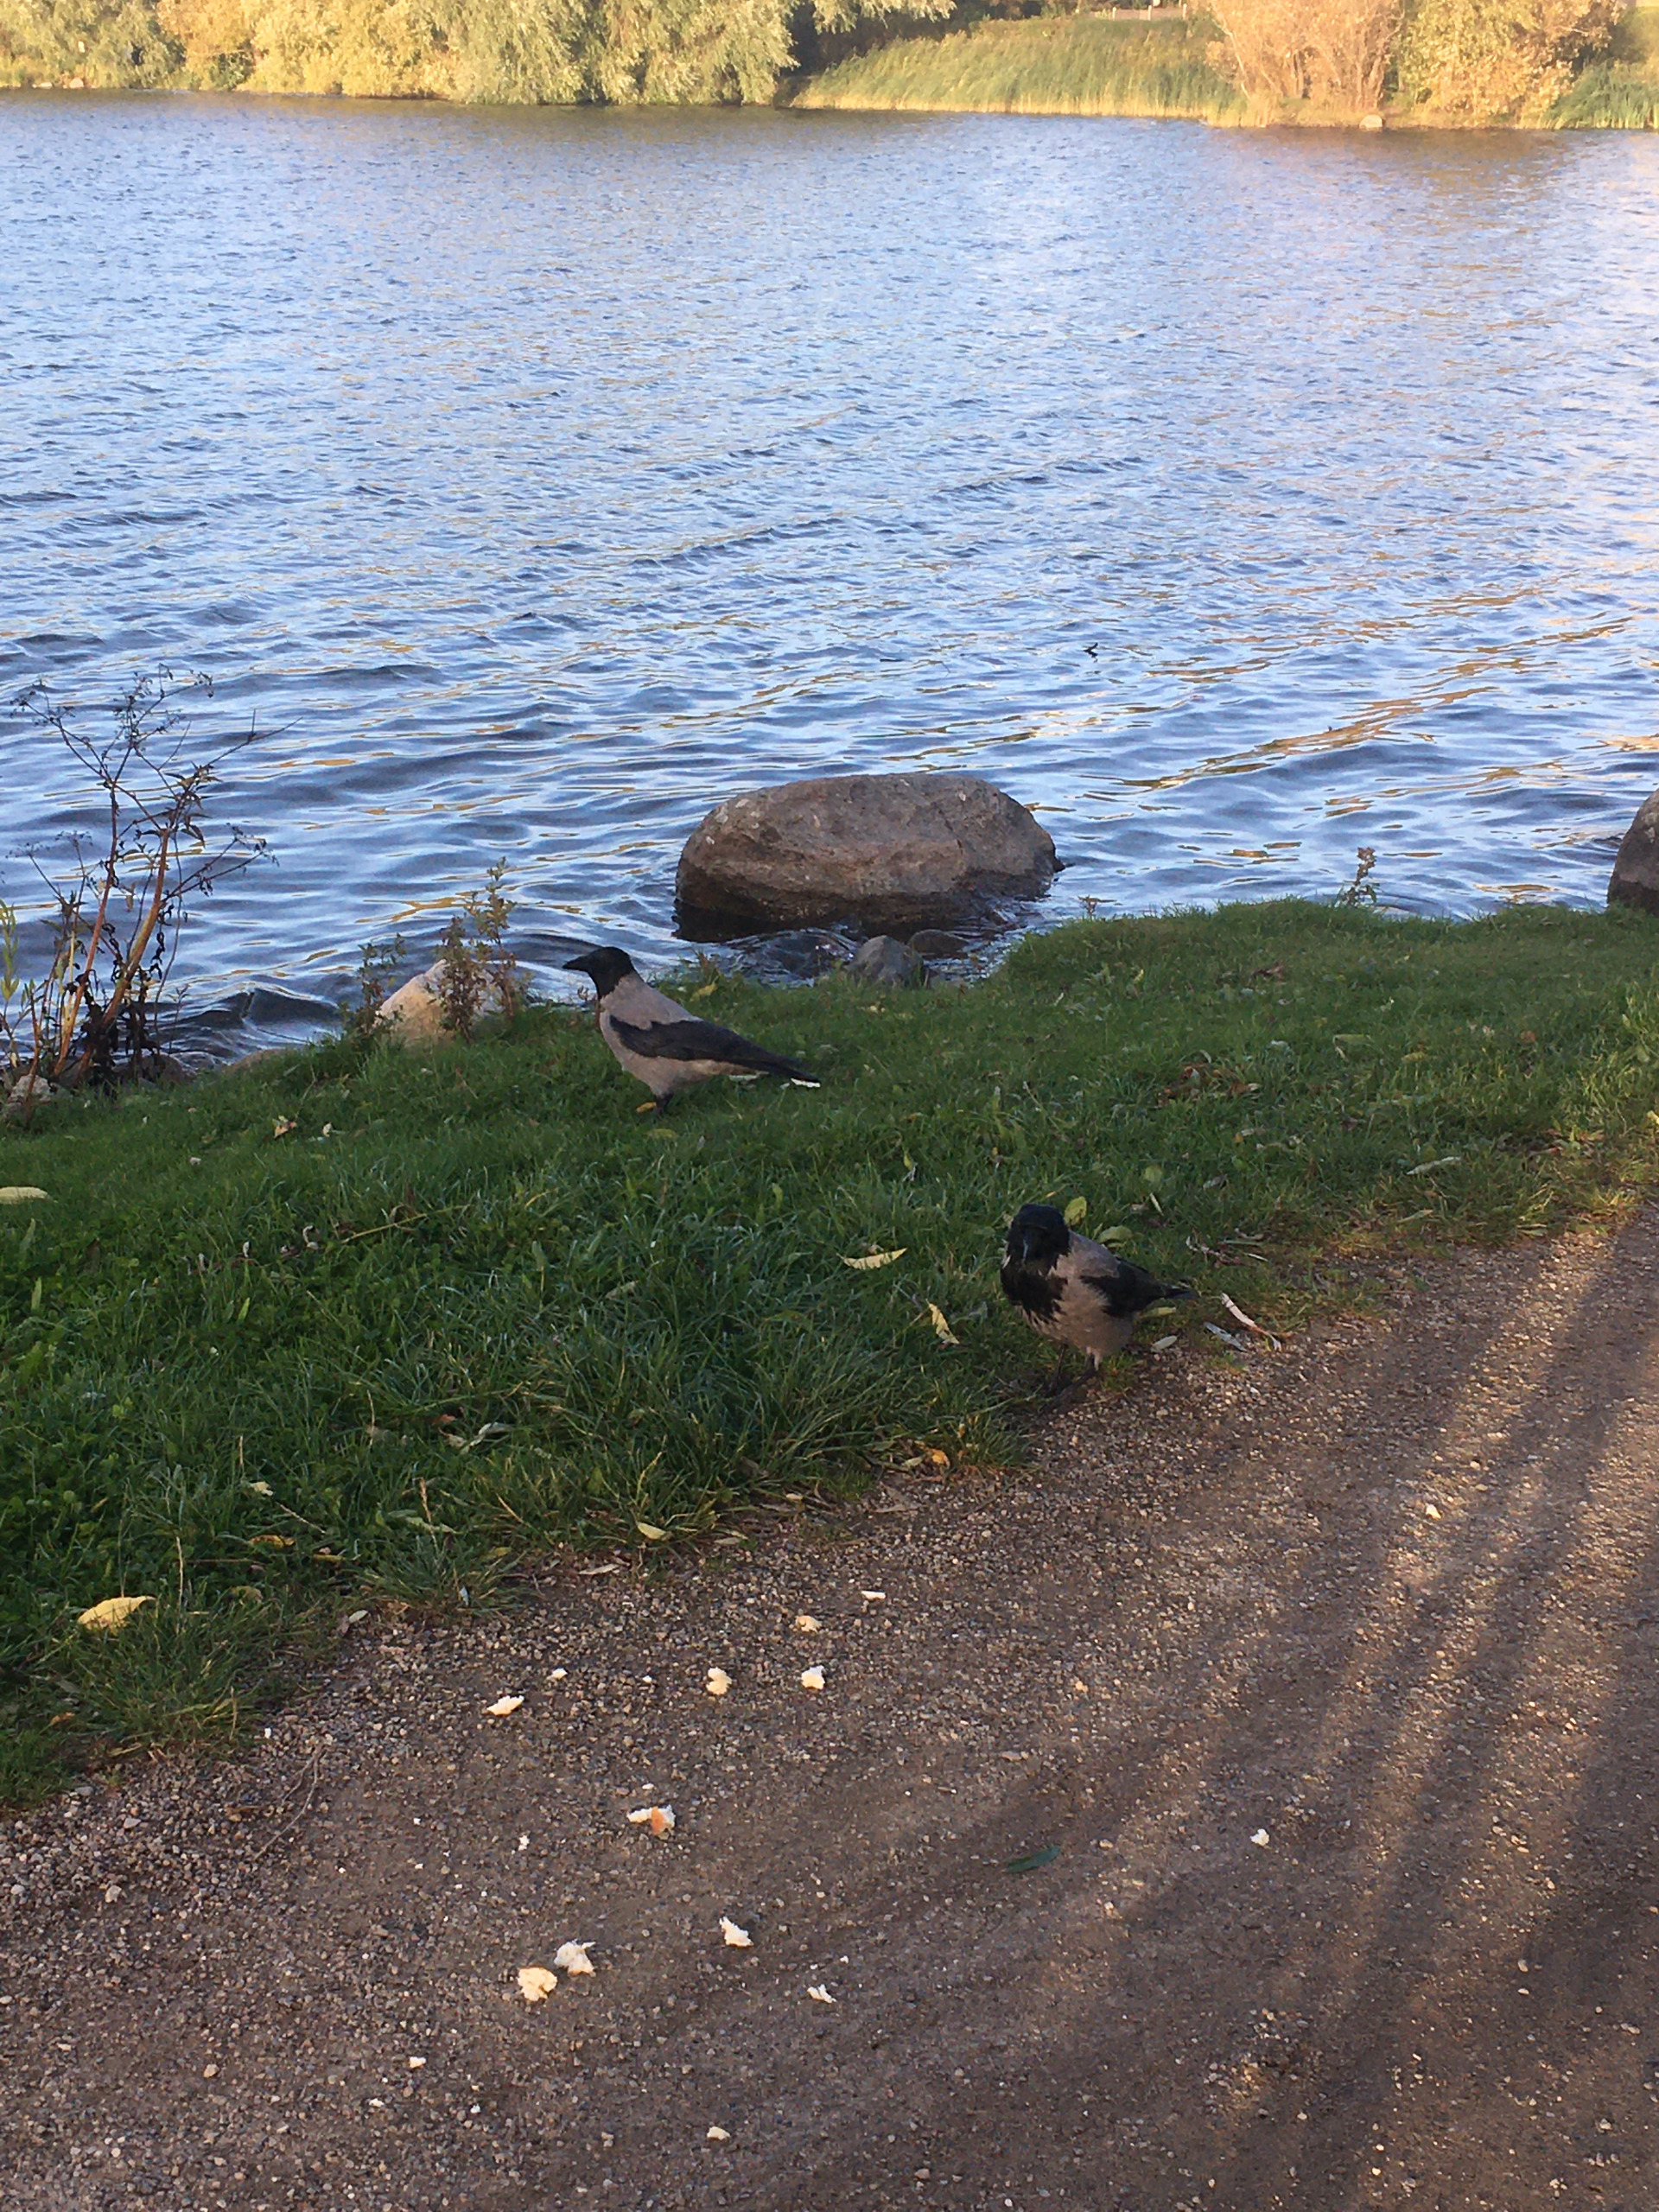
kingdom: Animalia
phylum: Chordata
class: Aves
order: Passeriformes
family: Corvidae
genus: Corvus
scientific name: Corvus cornix
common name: Gråkrage
